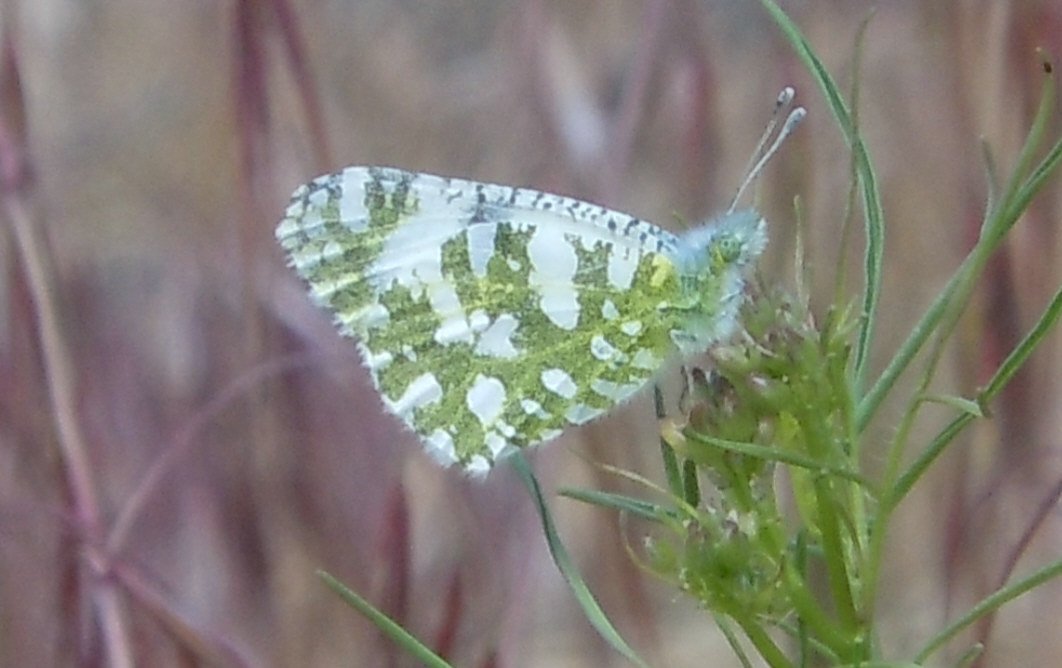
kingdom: Animalia
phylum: Arthropoda
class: Insecta
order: Lepidoptera
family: Pieridae
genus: Euchloe
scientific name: Euchloe lotta
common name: Desert Marble
